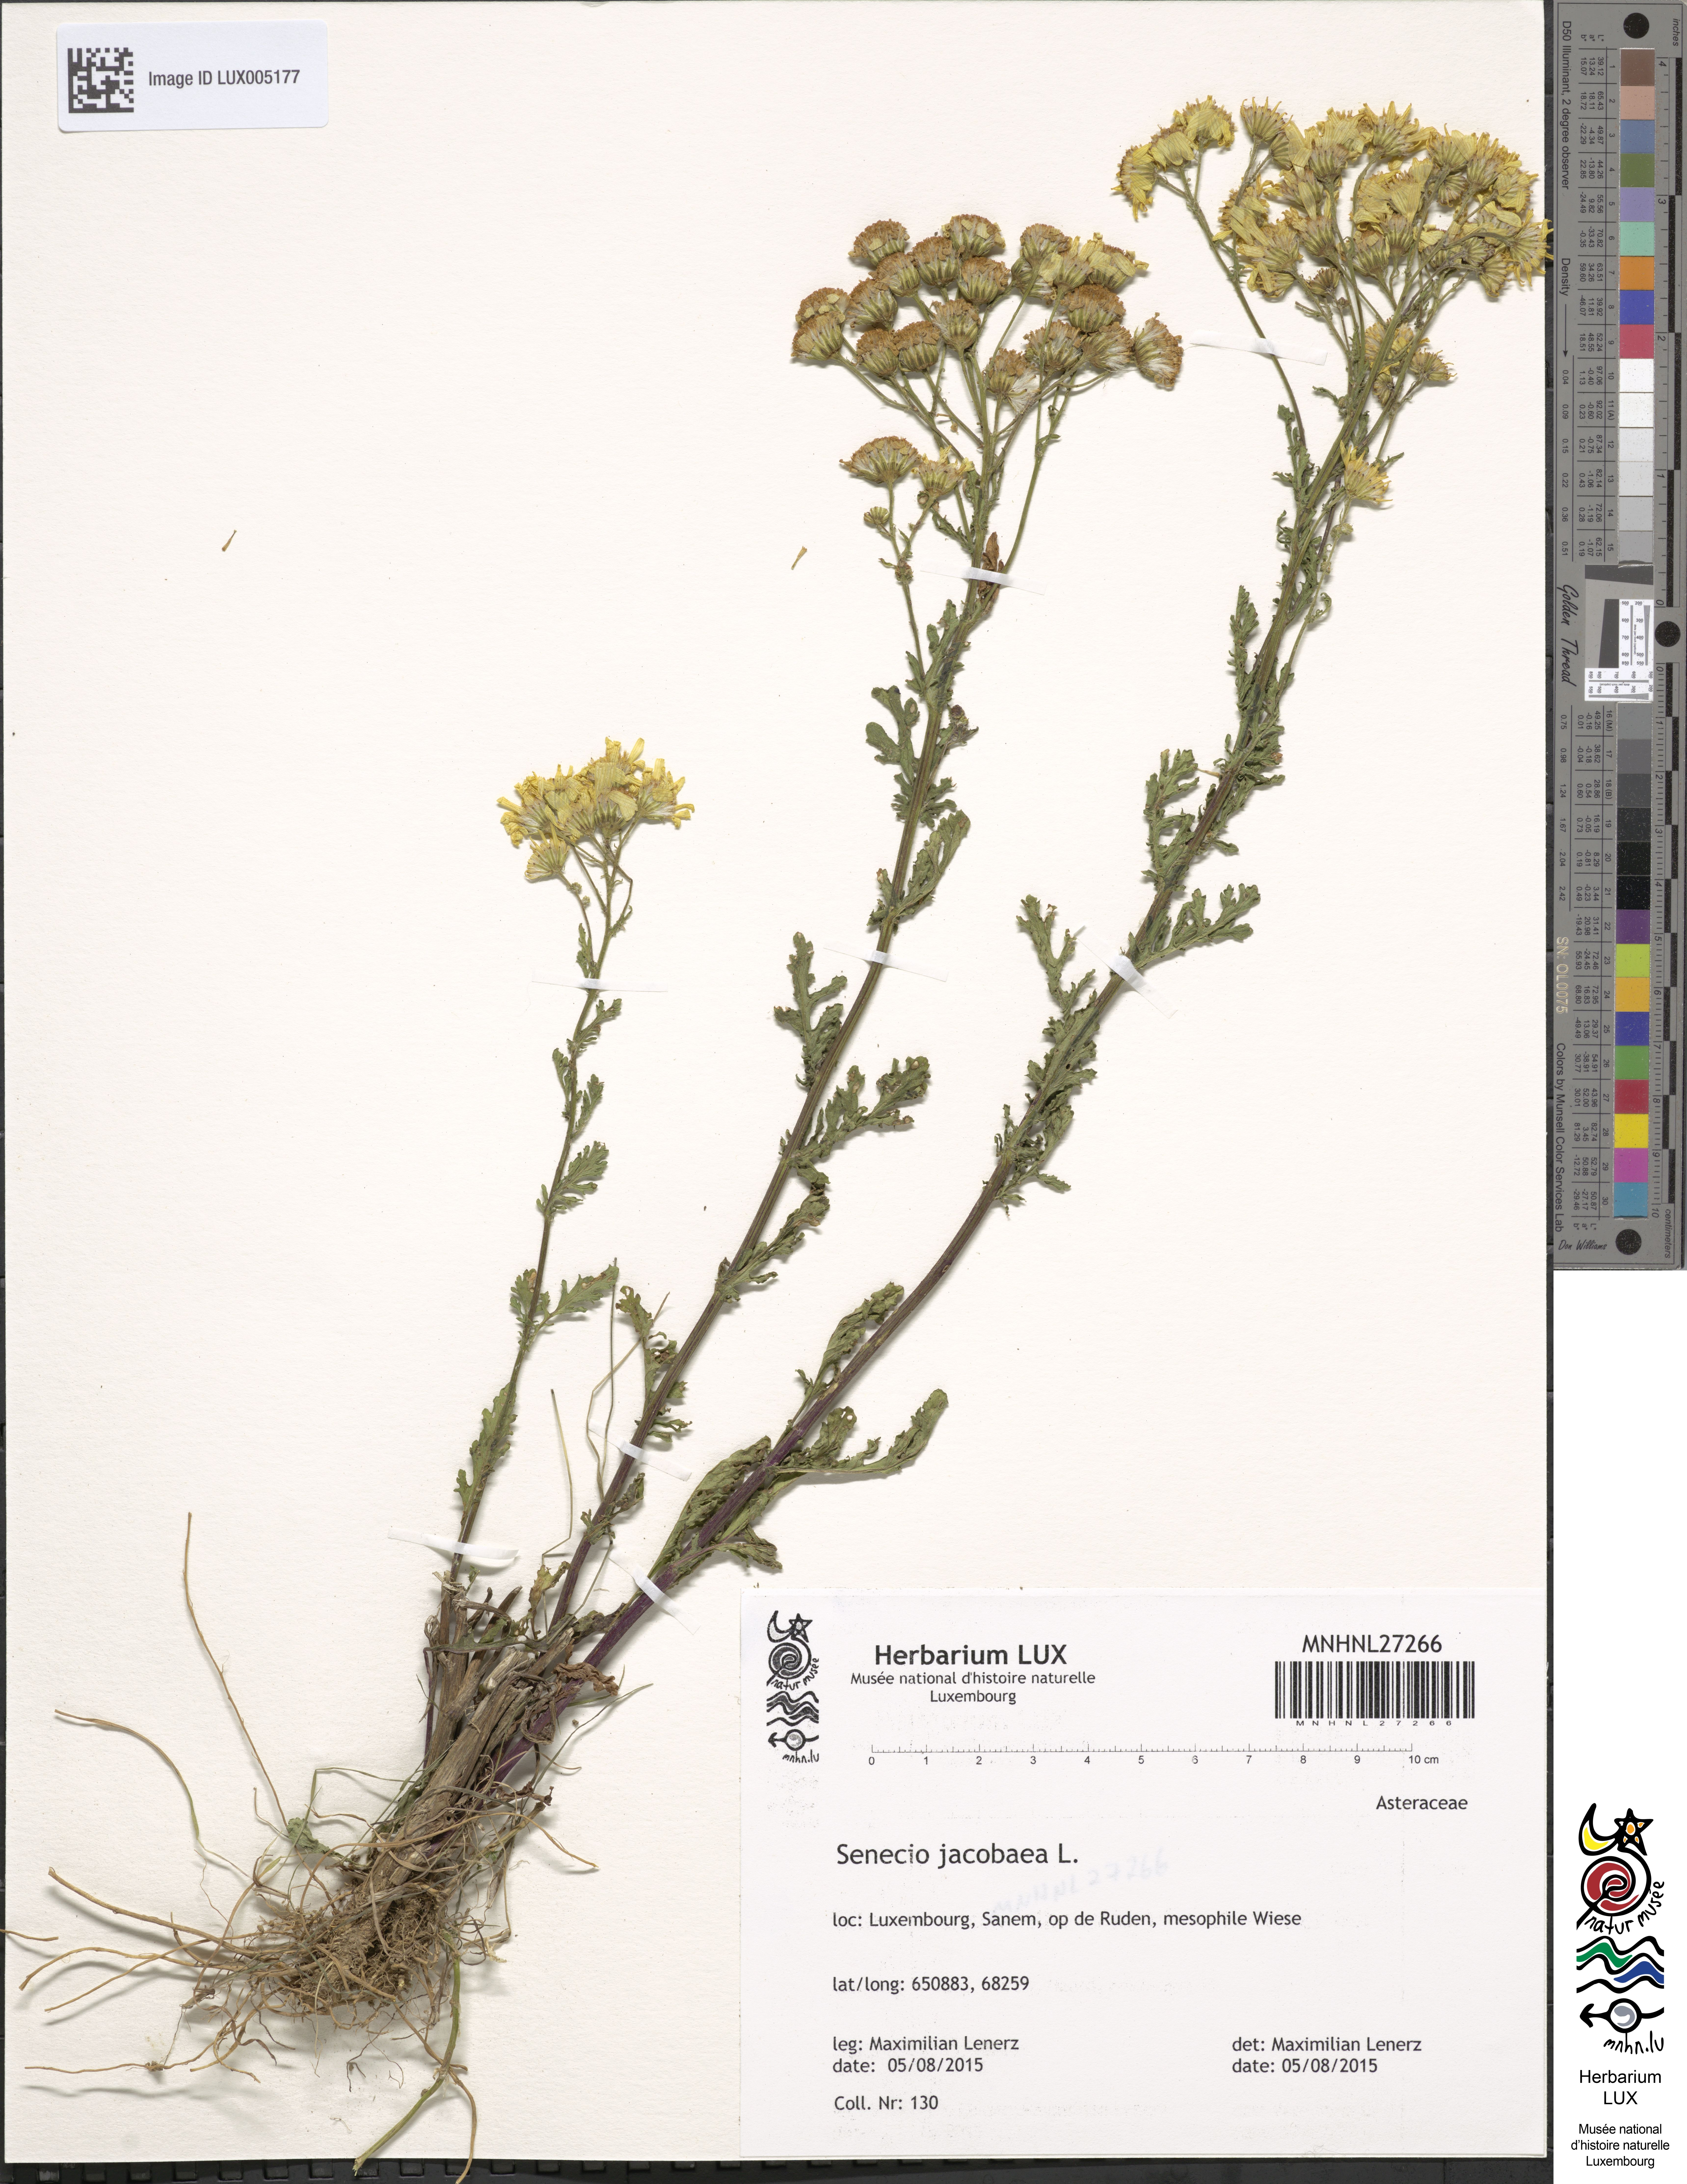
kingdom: Plantae
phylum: Tracheophyta
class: Magnoliopsida
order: Asterales
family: Asteraceae
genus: Jacobaea
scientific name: Jacobaea vulgaris
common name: Stinking willie
